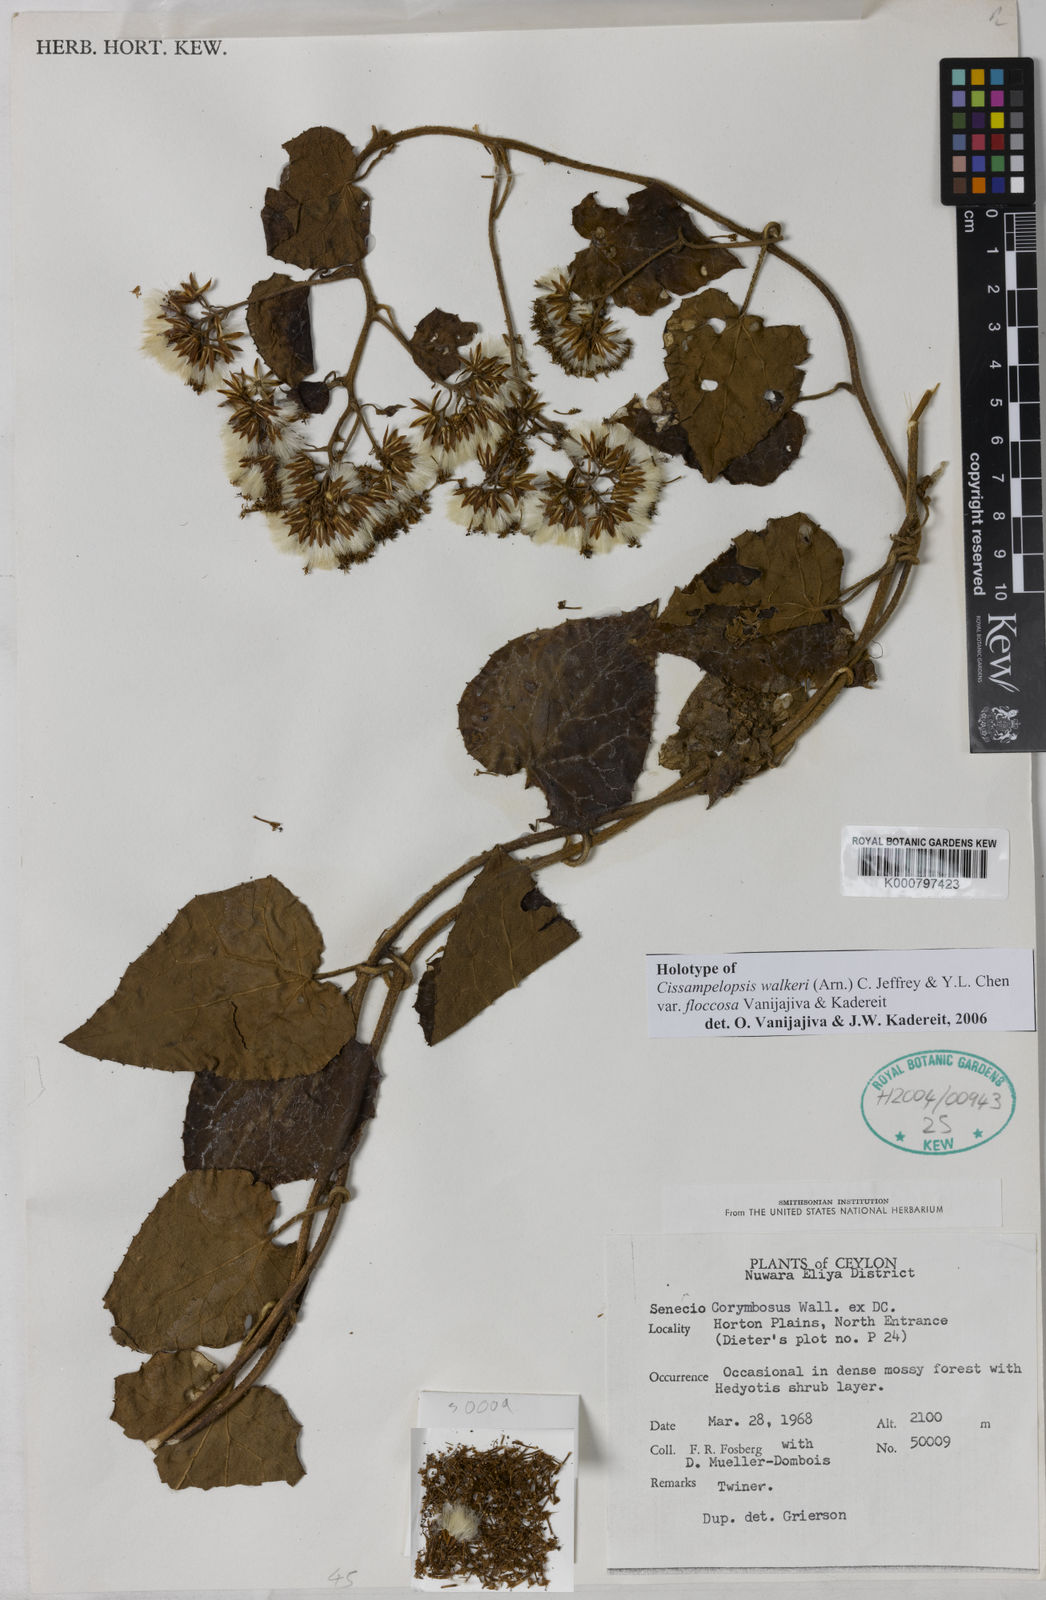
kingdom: Plantae
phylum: Tracheophyta
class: Magnoliopsida
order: Asterales
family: Asteraceae
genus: Cissampelopsis
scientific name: Cissampelopsis walkeri
